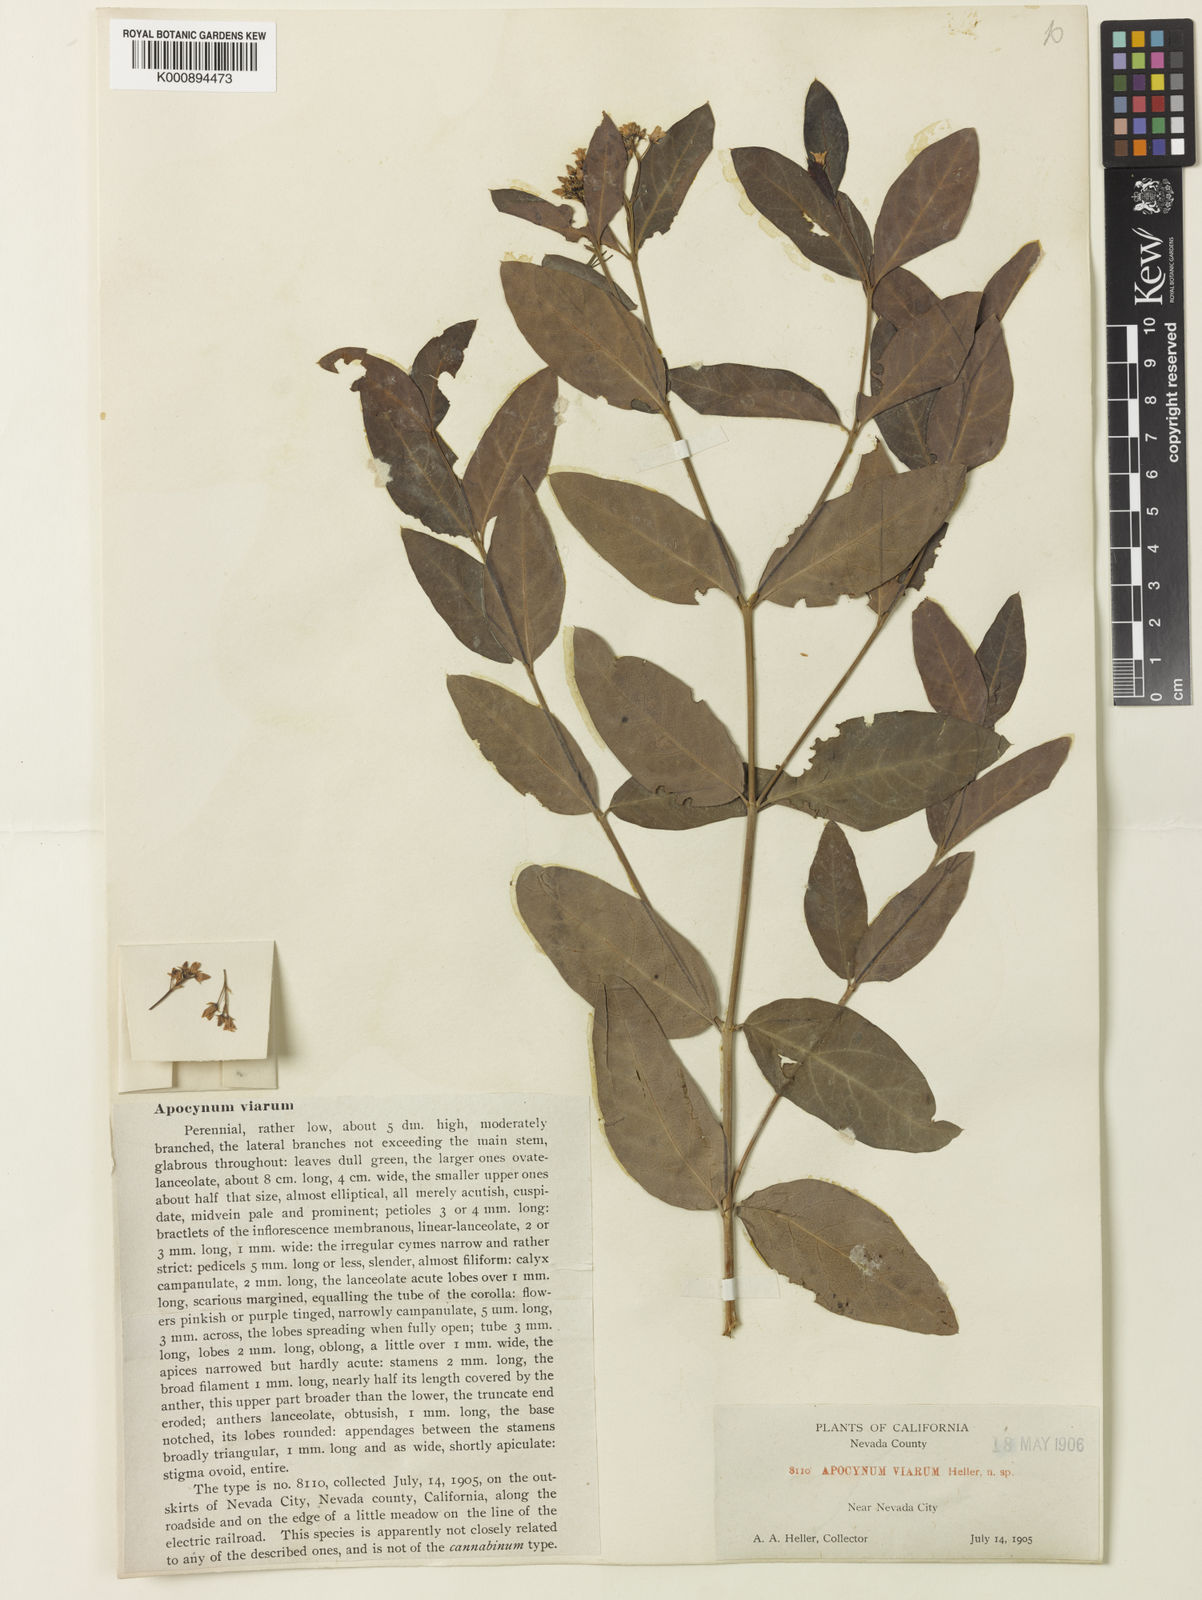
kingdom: Plantae
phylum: Tracheophyta
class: Magnoliopsida
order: Gentianales
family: Apocynaceae
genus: Apocynum
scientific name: Apocynum floribundum
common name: Hybrid dogbane
